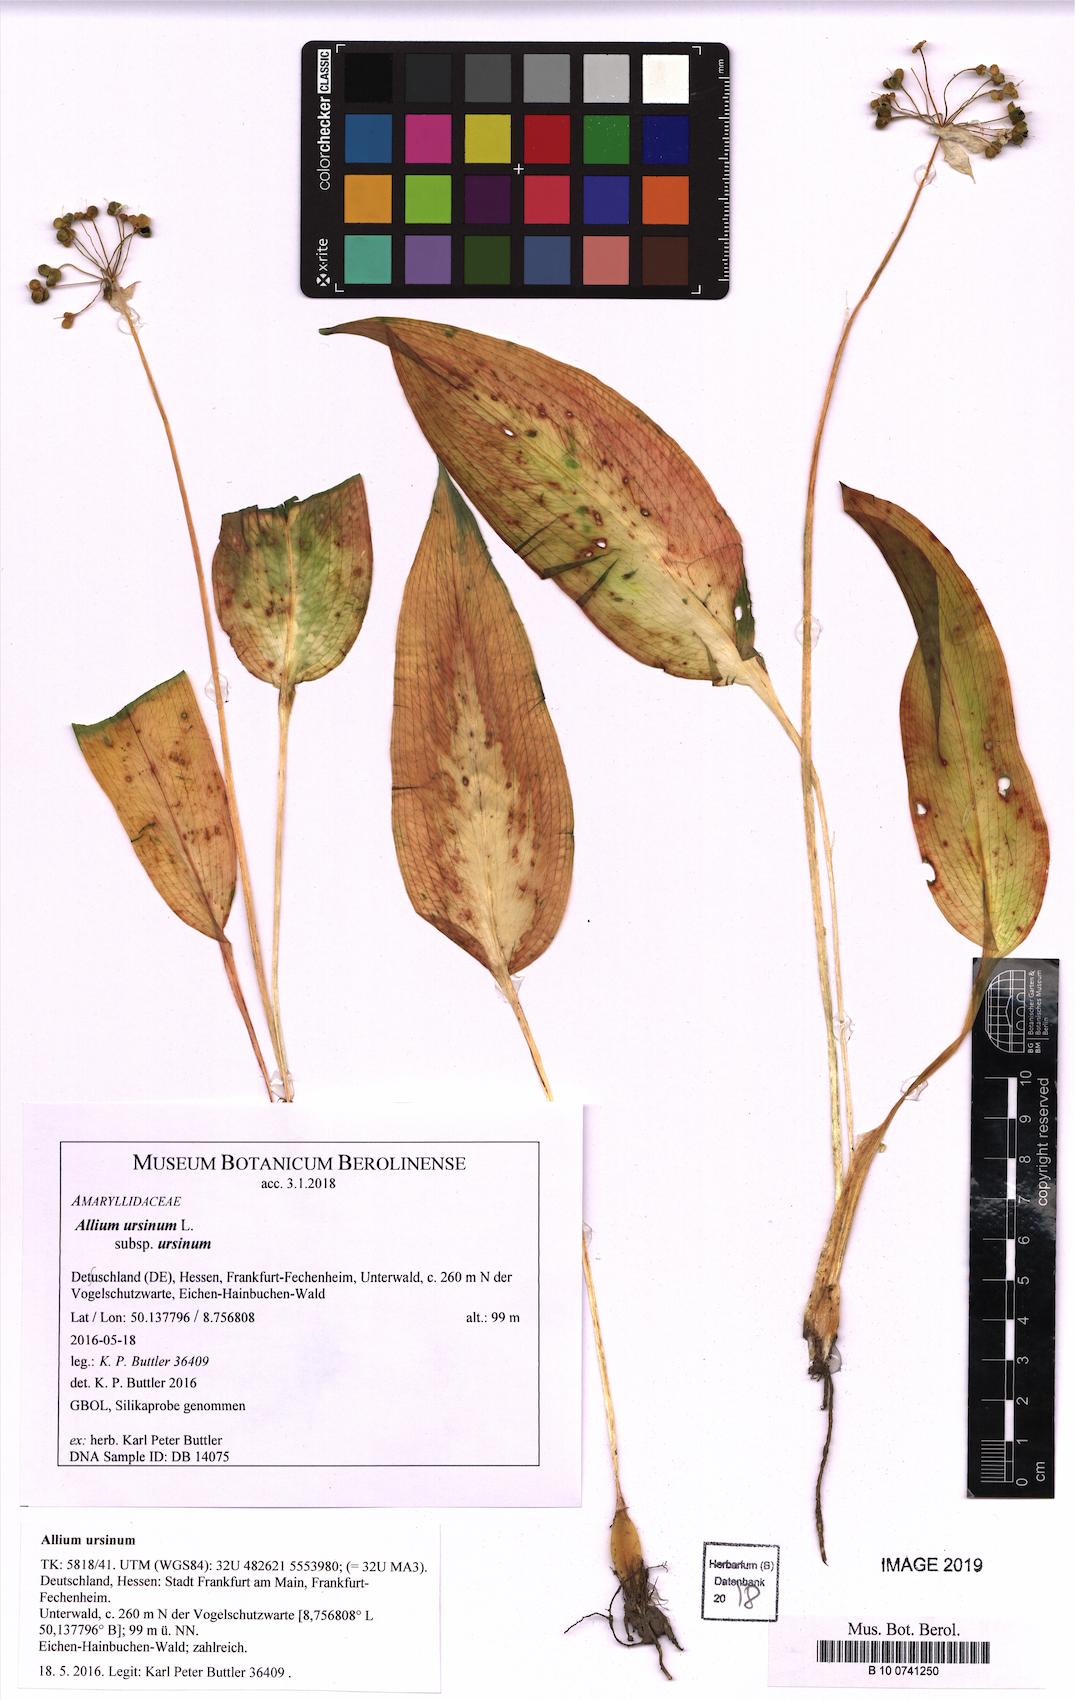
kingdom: Plantae
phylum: Tracheophyta
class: Liliopsida
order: Asparagales
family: Amaryllidaceae
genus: Allium
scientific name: Allium ursinum
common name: Ramsons
